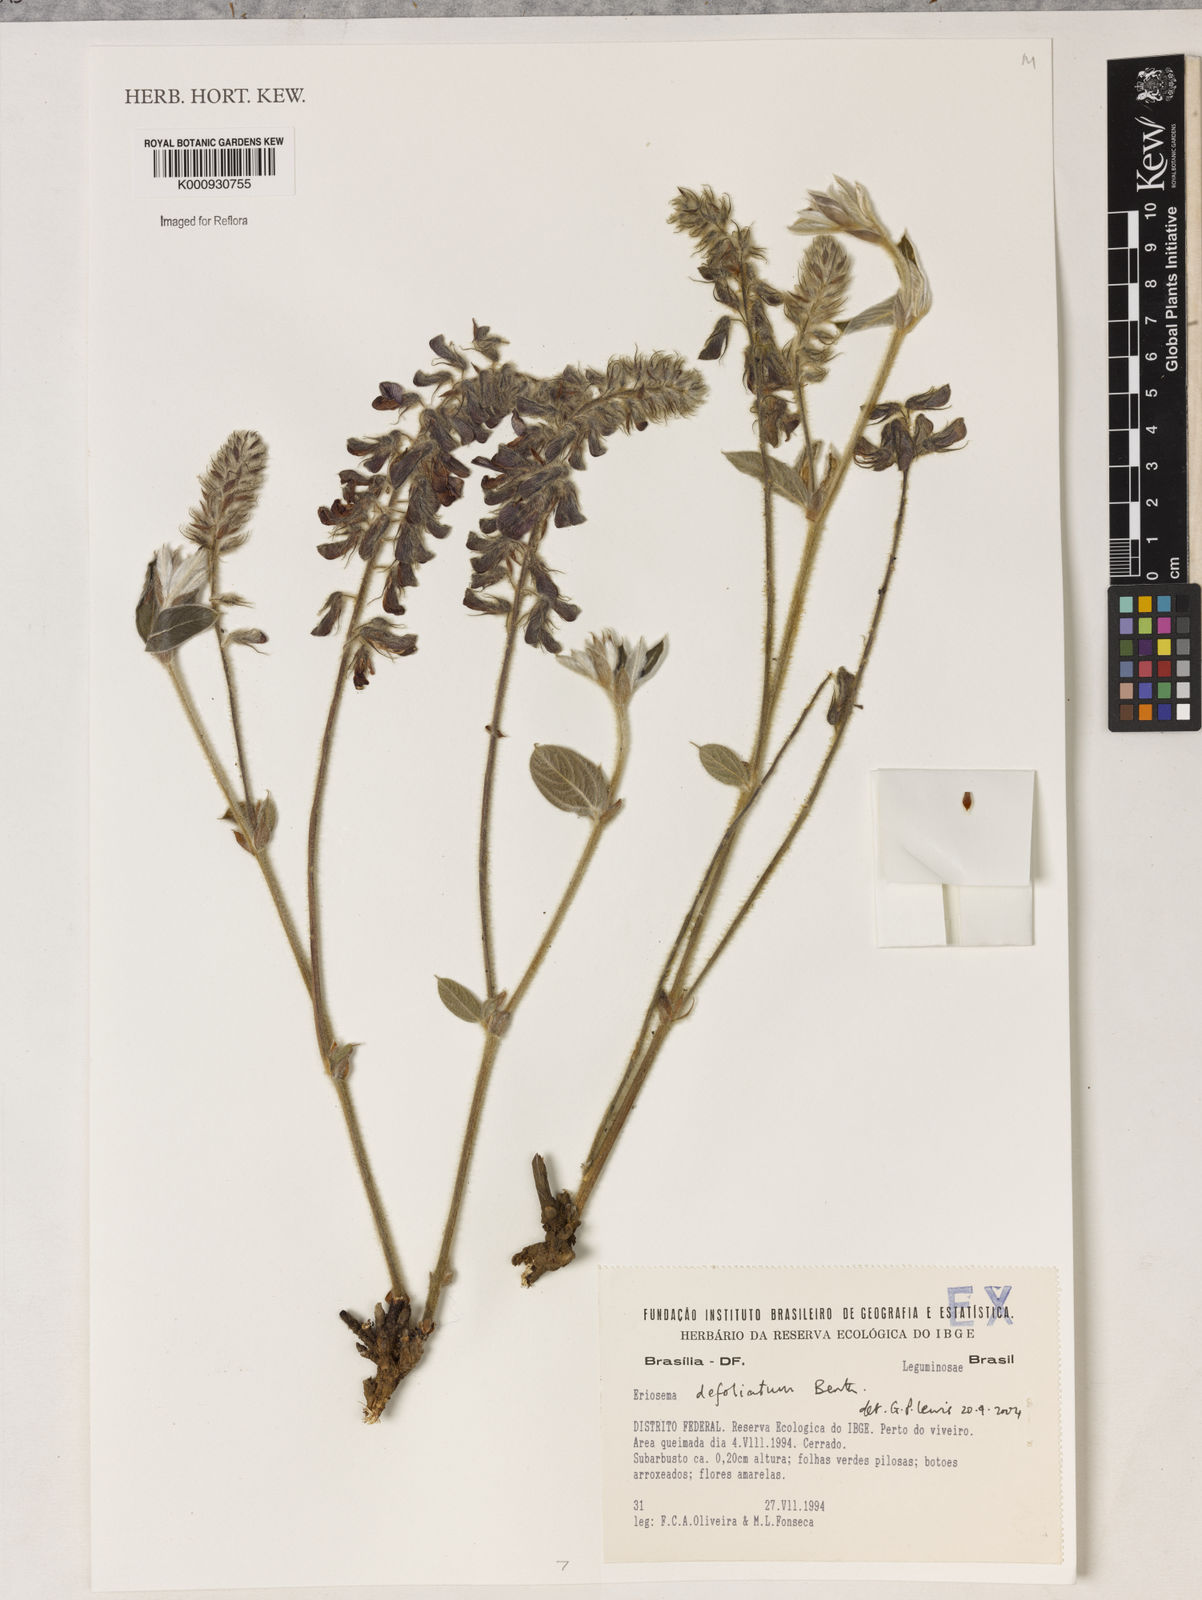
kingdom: Plantae
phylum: Tracheophyta
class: Magnoliopsida
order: Fabales
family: Fabaceae
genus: Eriosema
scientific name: Eriosema defoliatum
